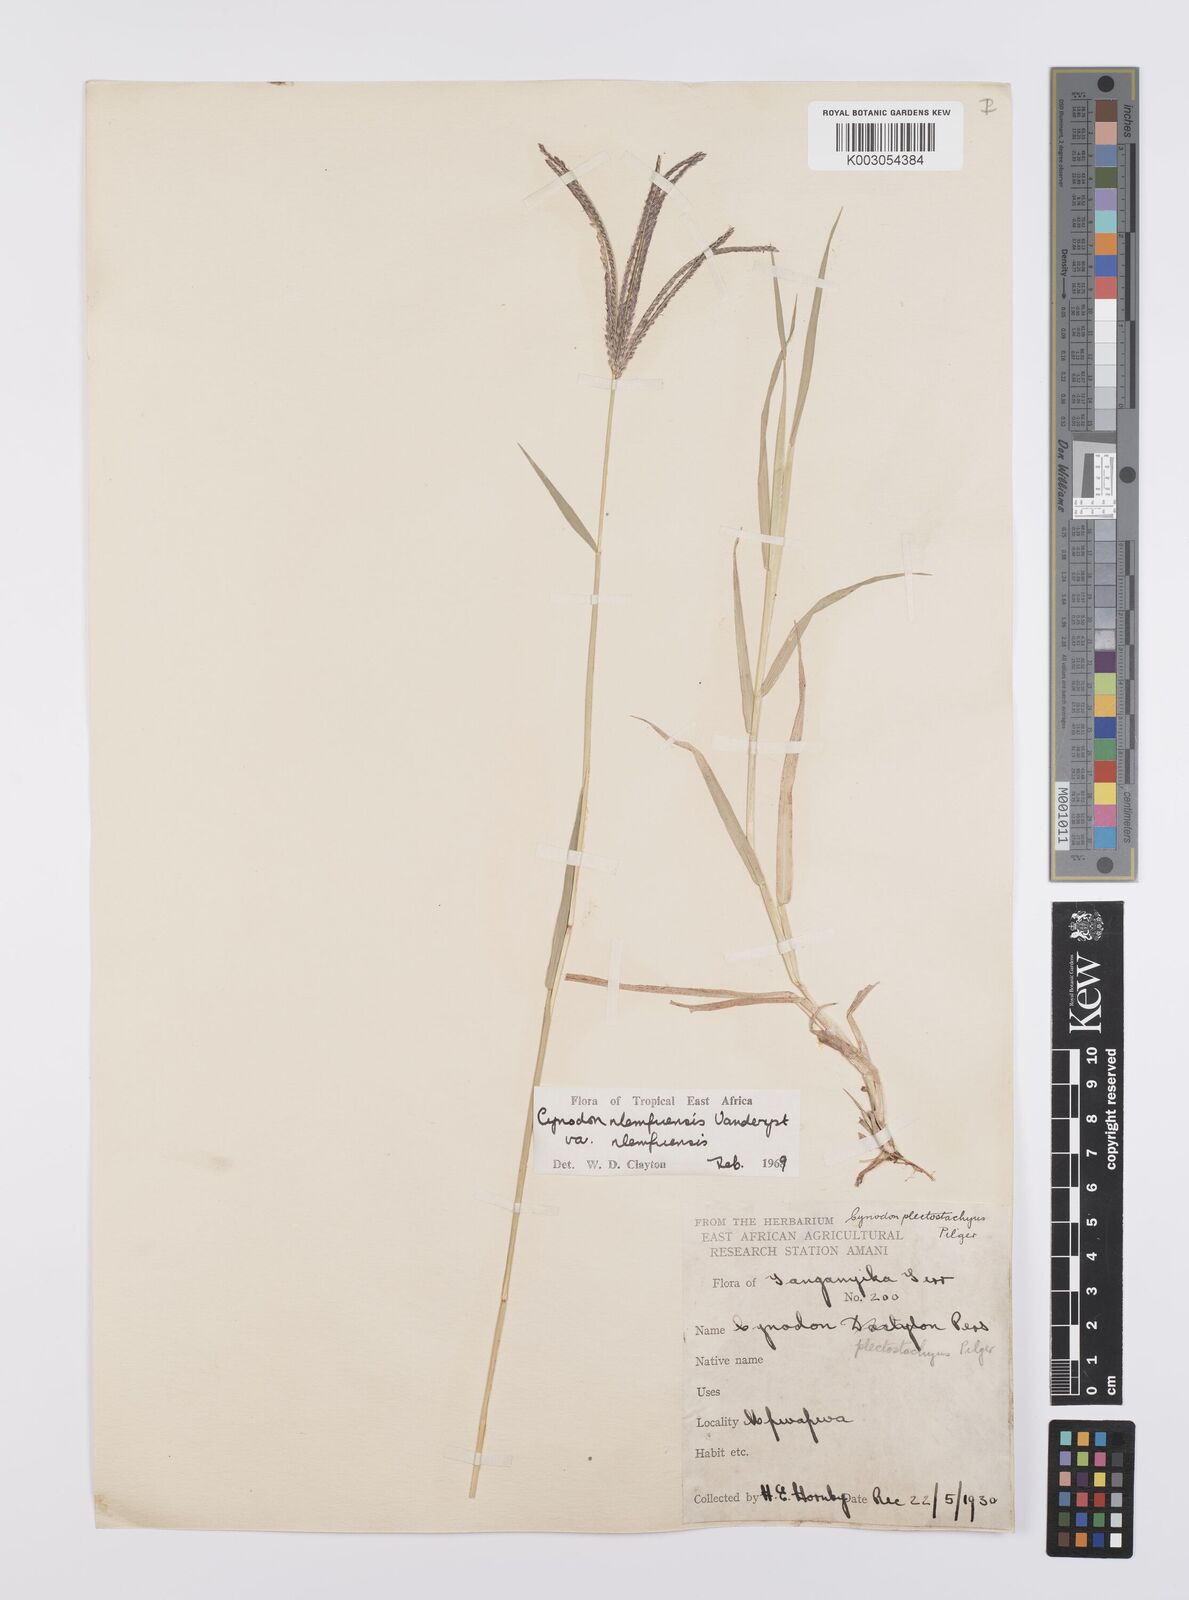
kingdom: Plantae
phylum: Tracheophyta
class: Liliopsida
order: Poales
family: Poaceae
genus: Cynodon
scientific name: Cynodon nlemfuensis
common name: African bermudagrass
